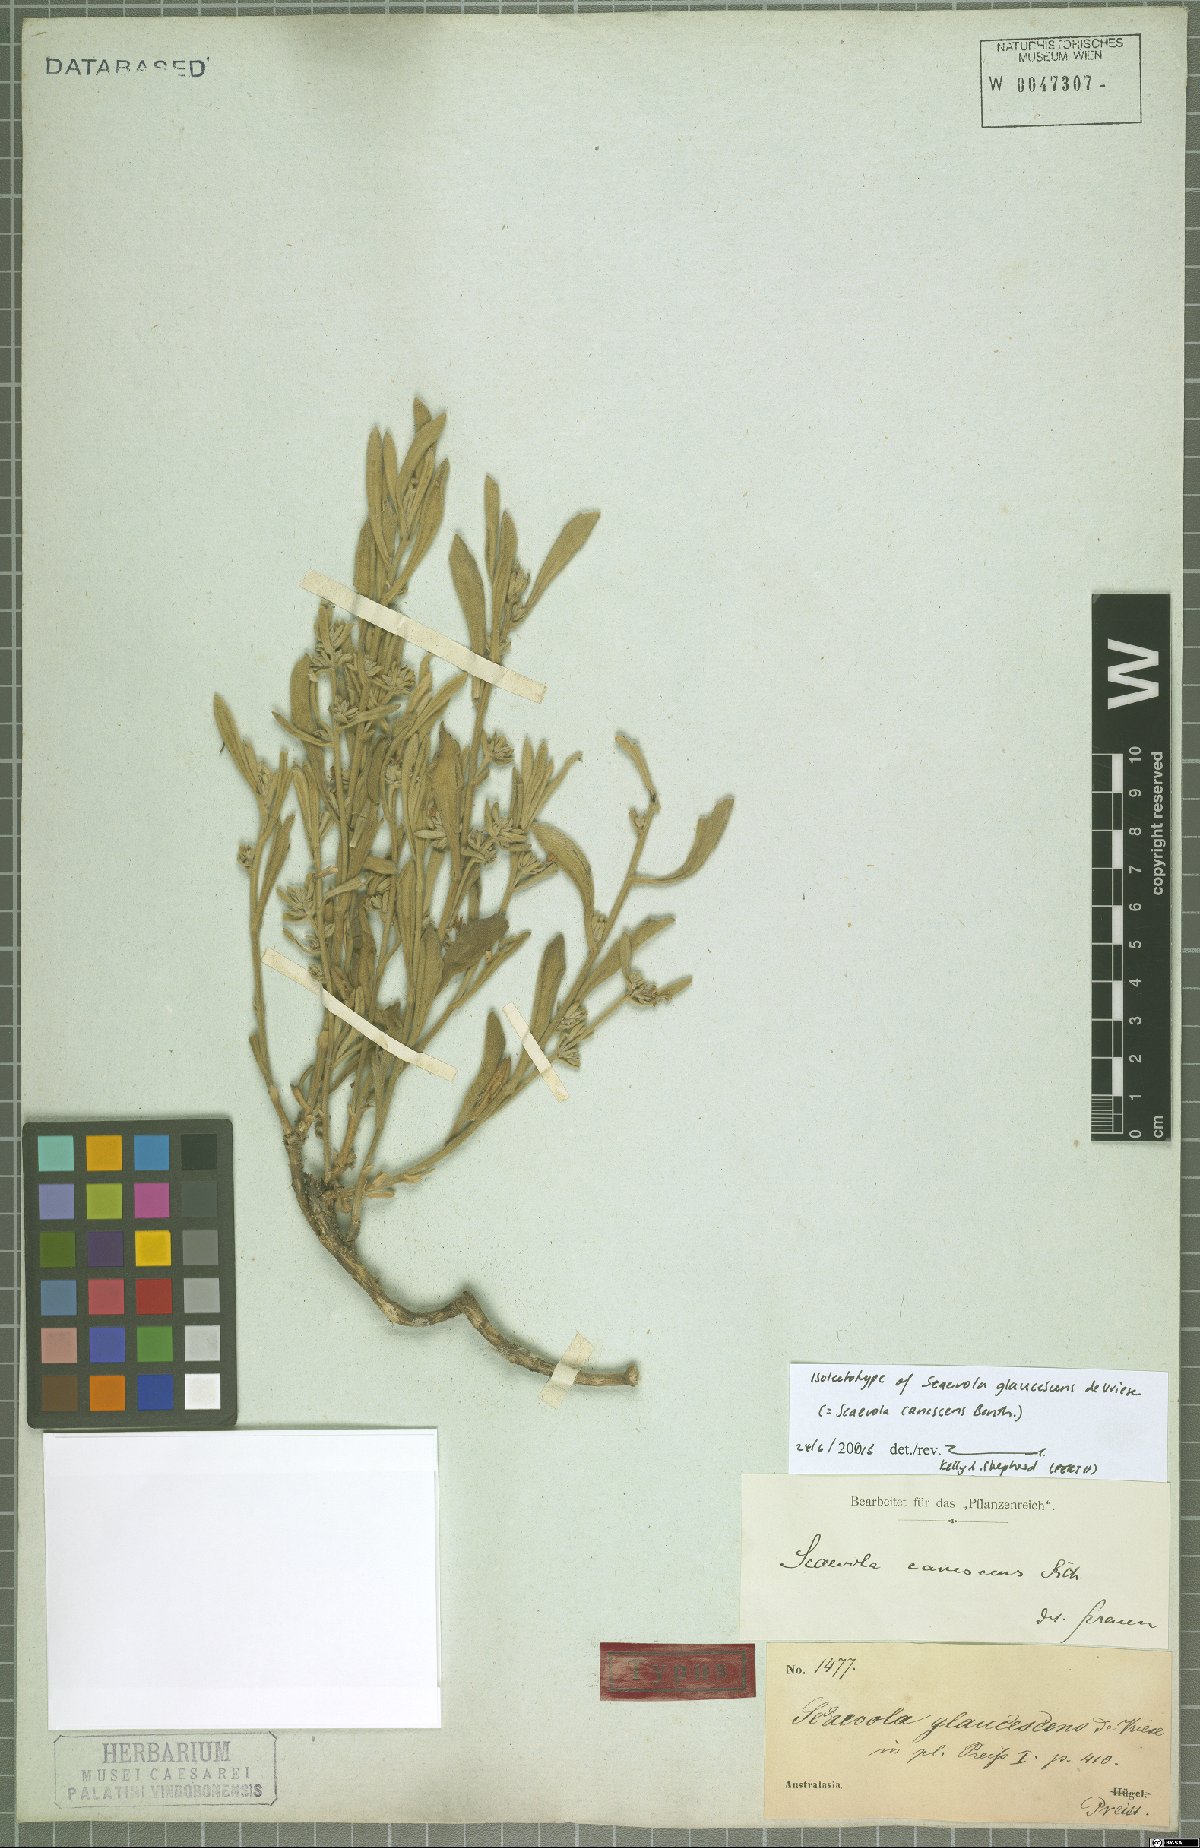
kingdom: Plantae
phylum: Tracheophyta
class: Magnoliopsida
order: Asterales
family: Goodeniaceae
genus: Scaevola
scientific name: Scaevola canescens
